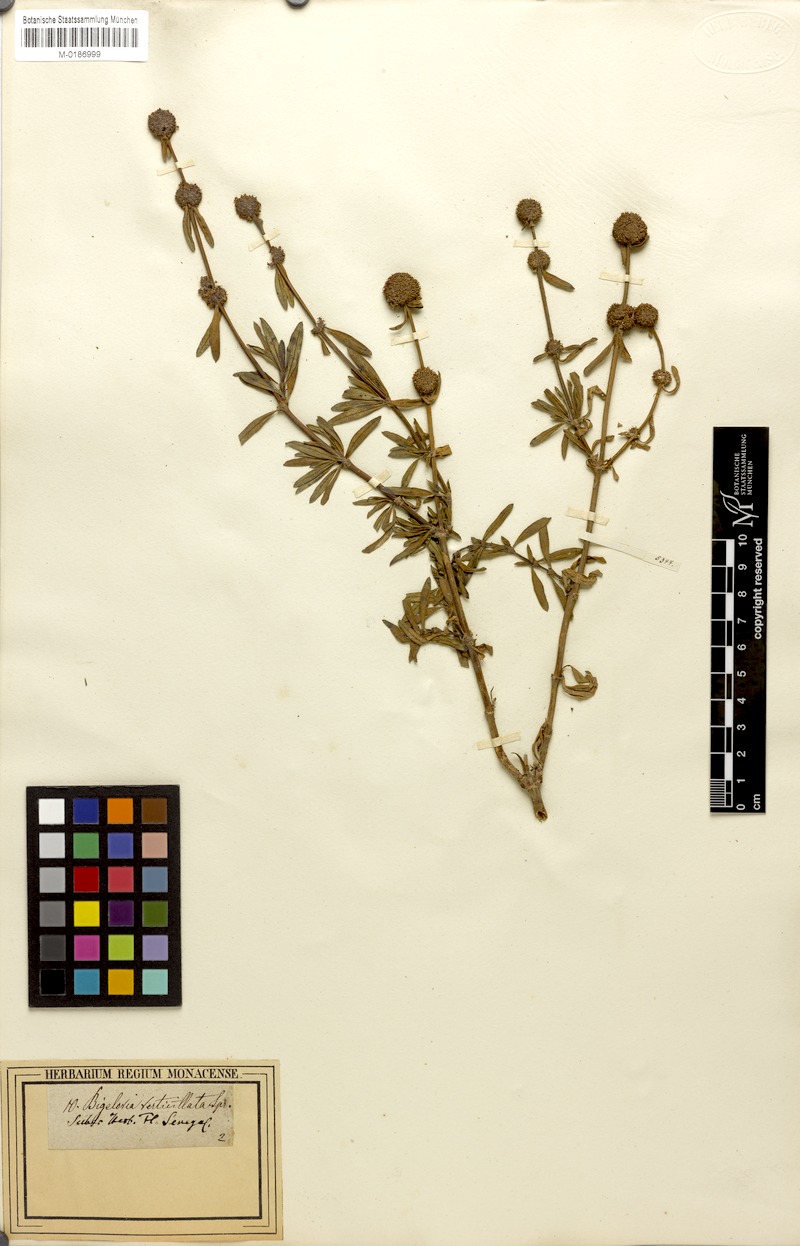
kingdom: Plantae
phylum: Tracheophyta
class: Magnoliopsida
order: Gentianales
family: Rubiaceae
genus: Spermacoce
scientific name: Spermacoce verticillata
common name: Shrubby false buttonweed
